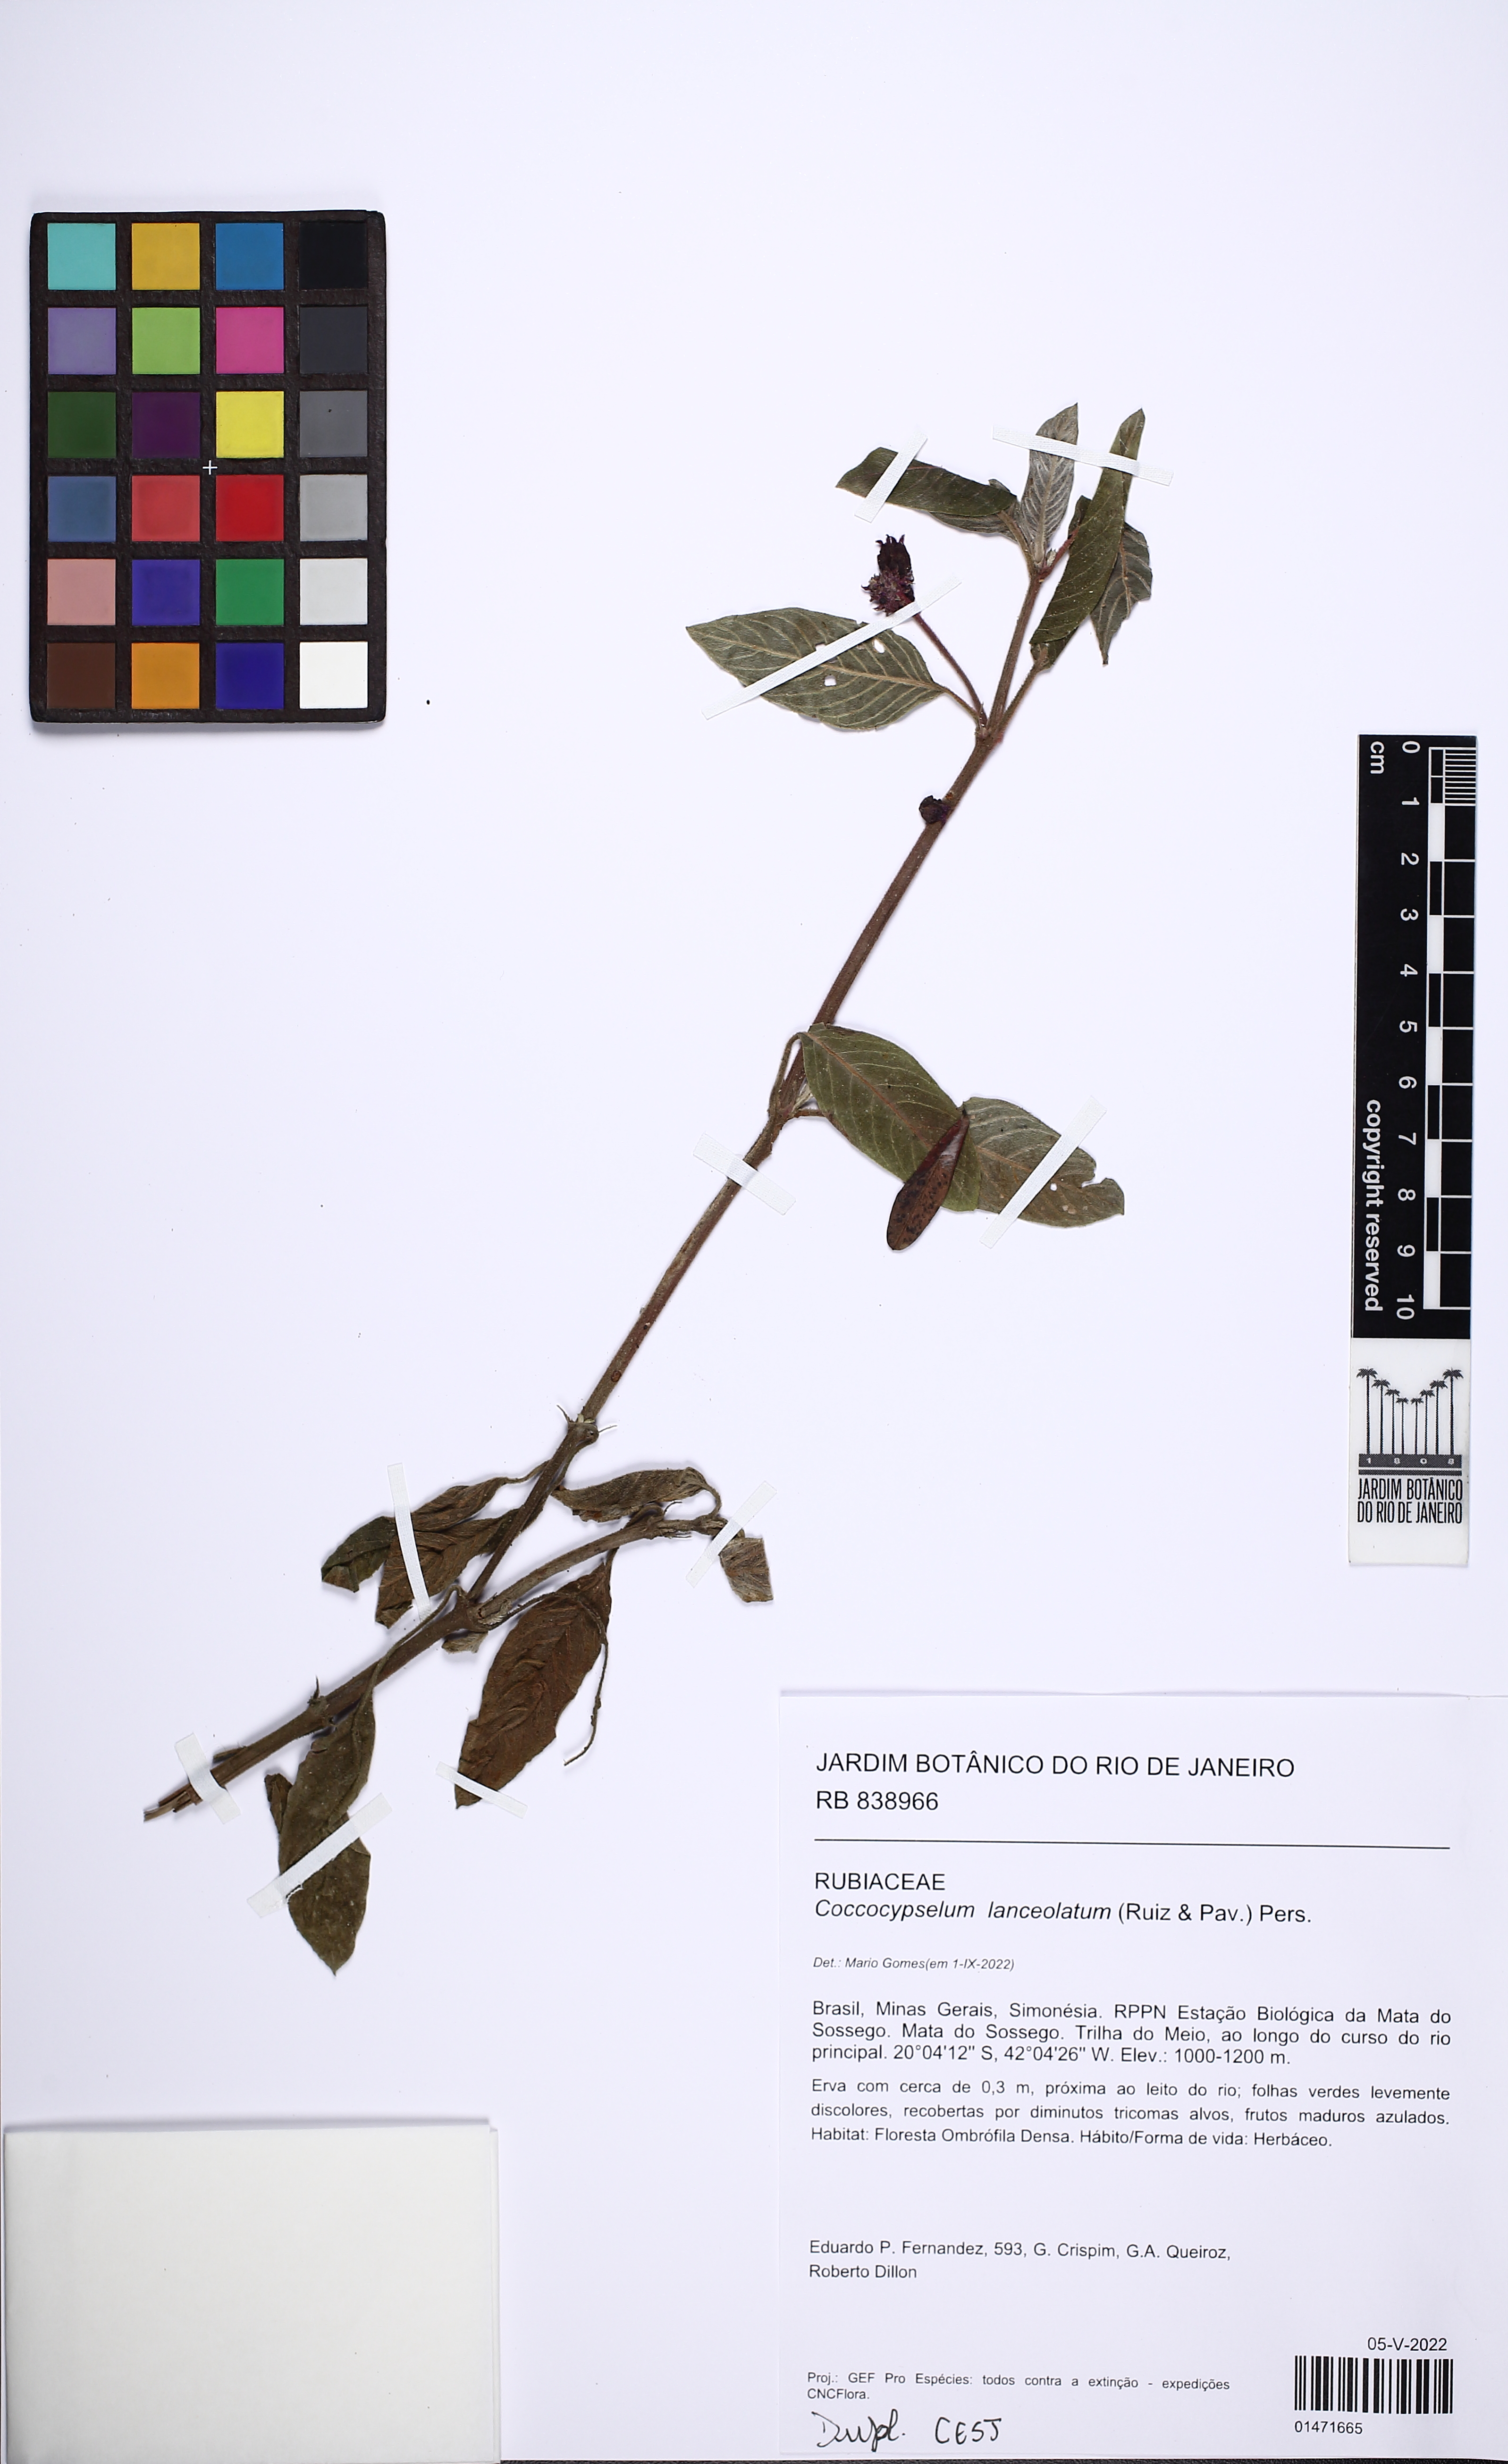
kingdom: Plantae
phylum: Tracheophyta
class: Magnoliopsida
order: Gentianales
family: Rubiaceae
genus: Coccocypselum
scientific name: Coccocypselum lanceolatum
